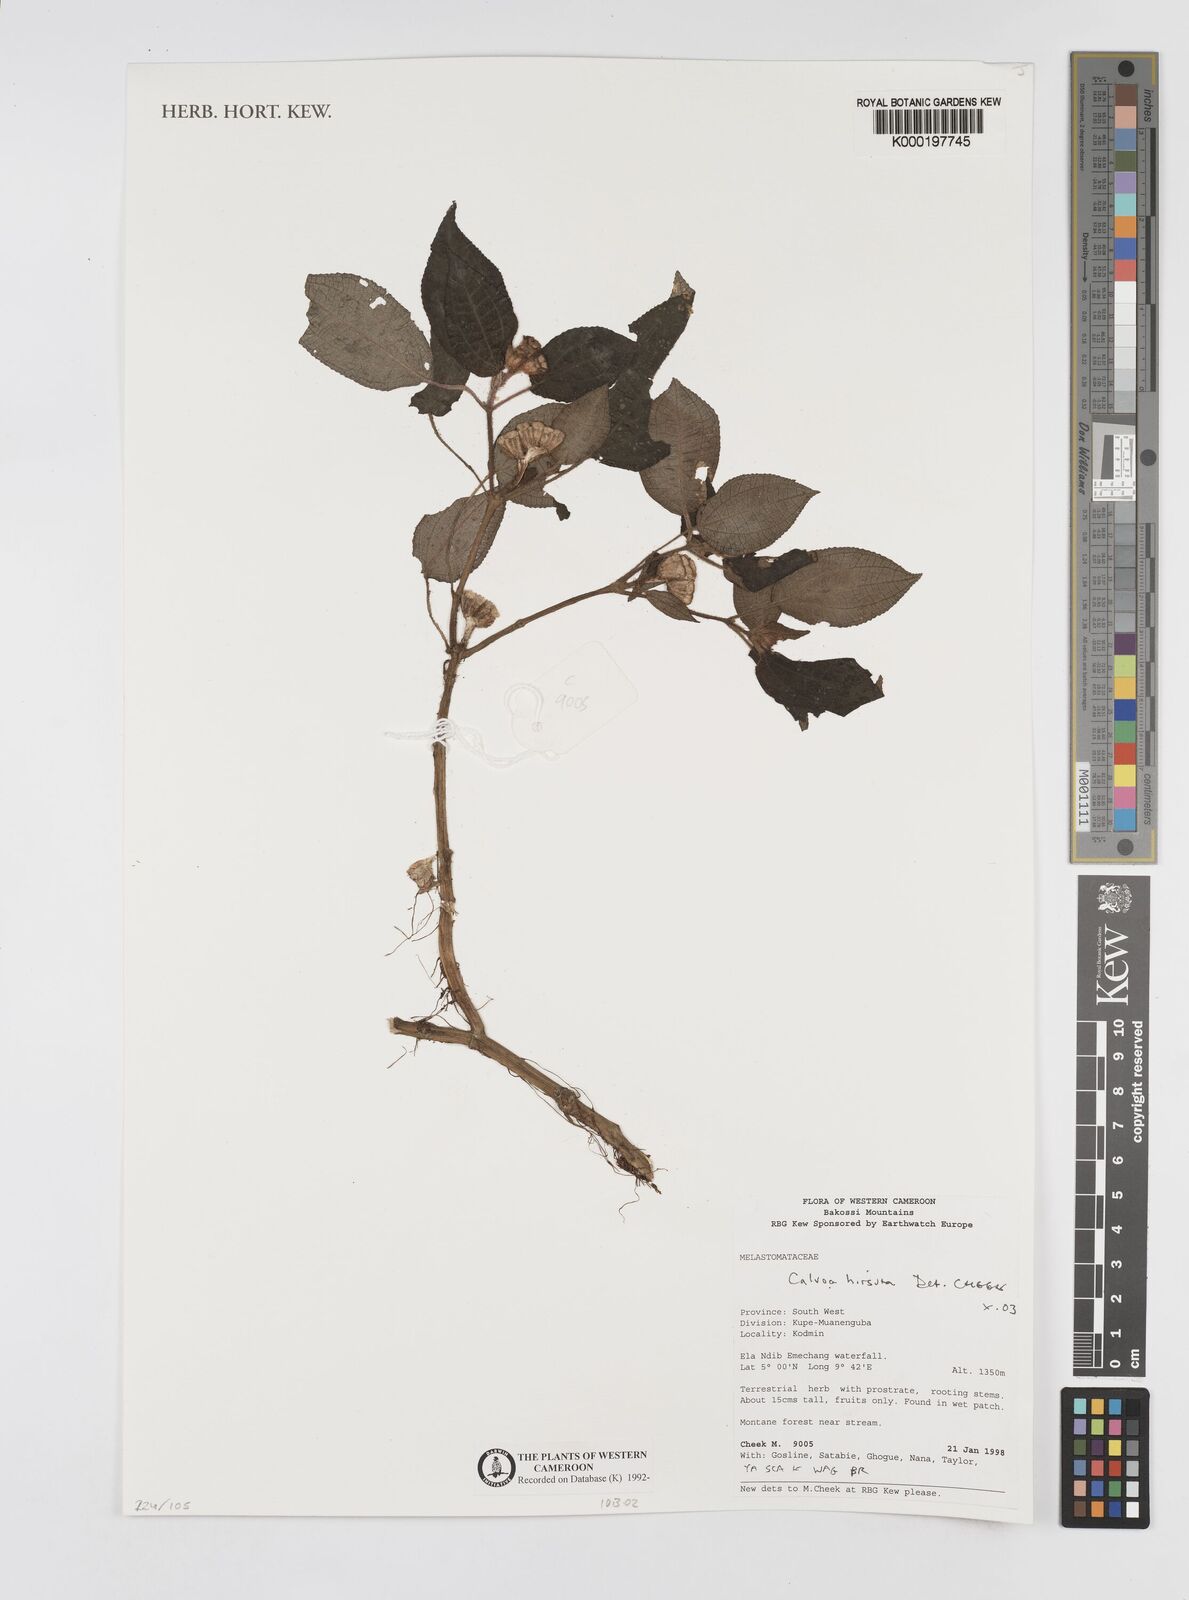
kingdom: Plantae
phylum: Tracheophyta
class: Magnoliopsida
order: Myrtales
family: Melastomataceae
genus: Calvoa
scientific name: Calvoa
